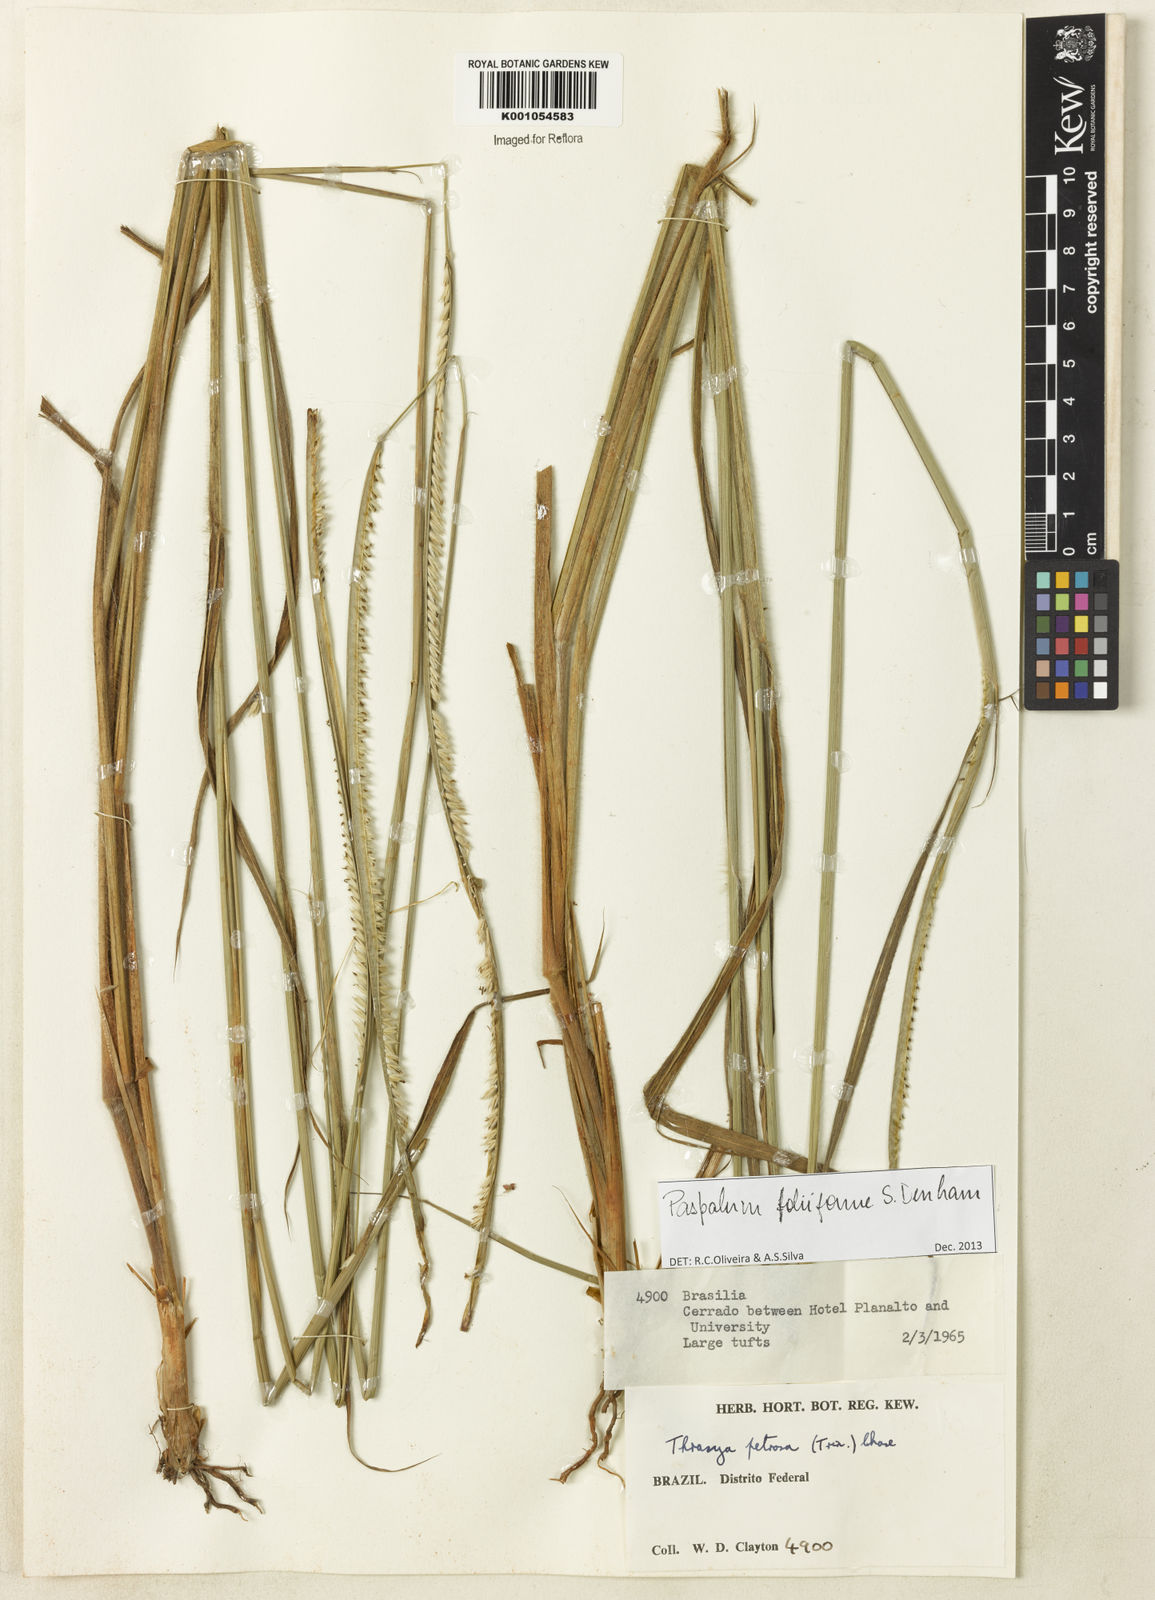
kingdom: Plantae
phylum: Tracheophyta
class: Liliopsida
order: Poales
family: Poaceae
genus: Paspalum
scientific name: Paspalum foliiforme
